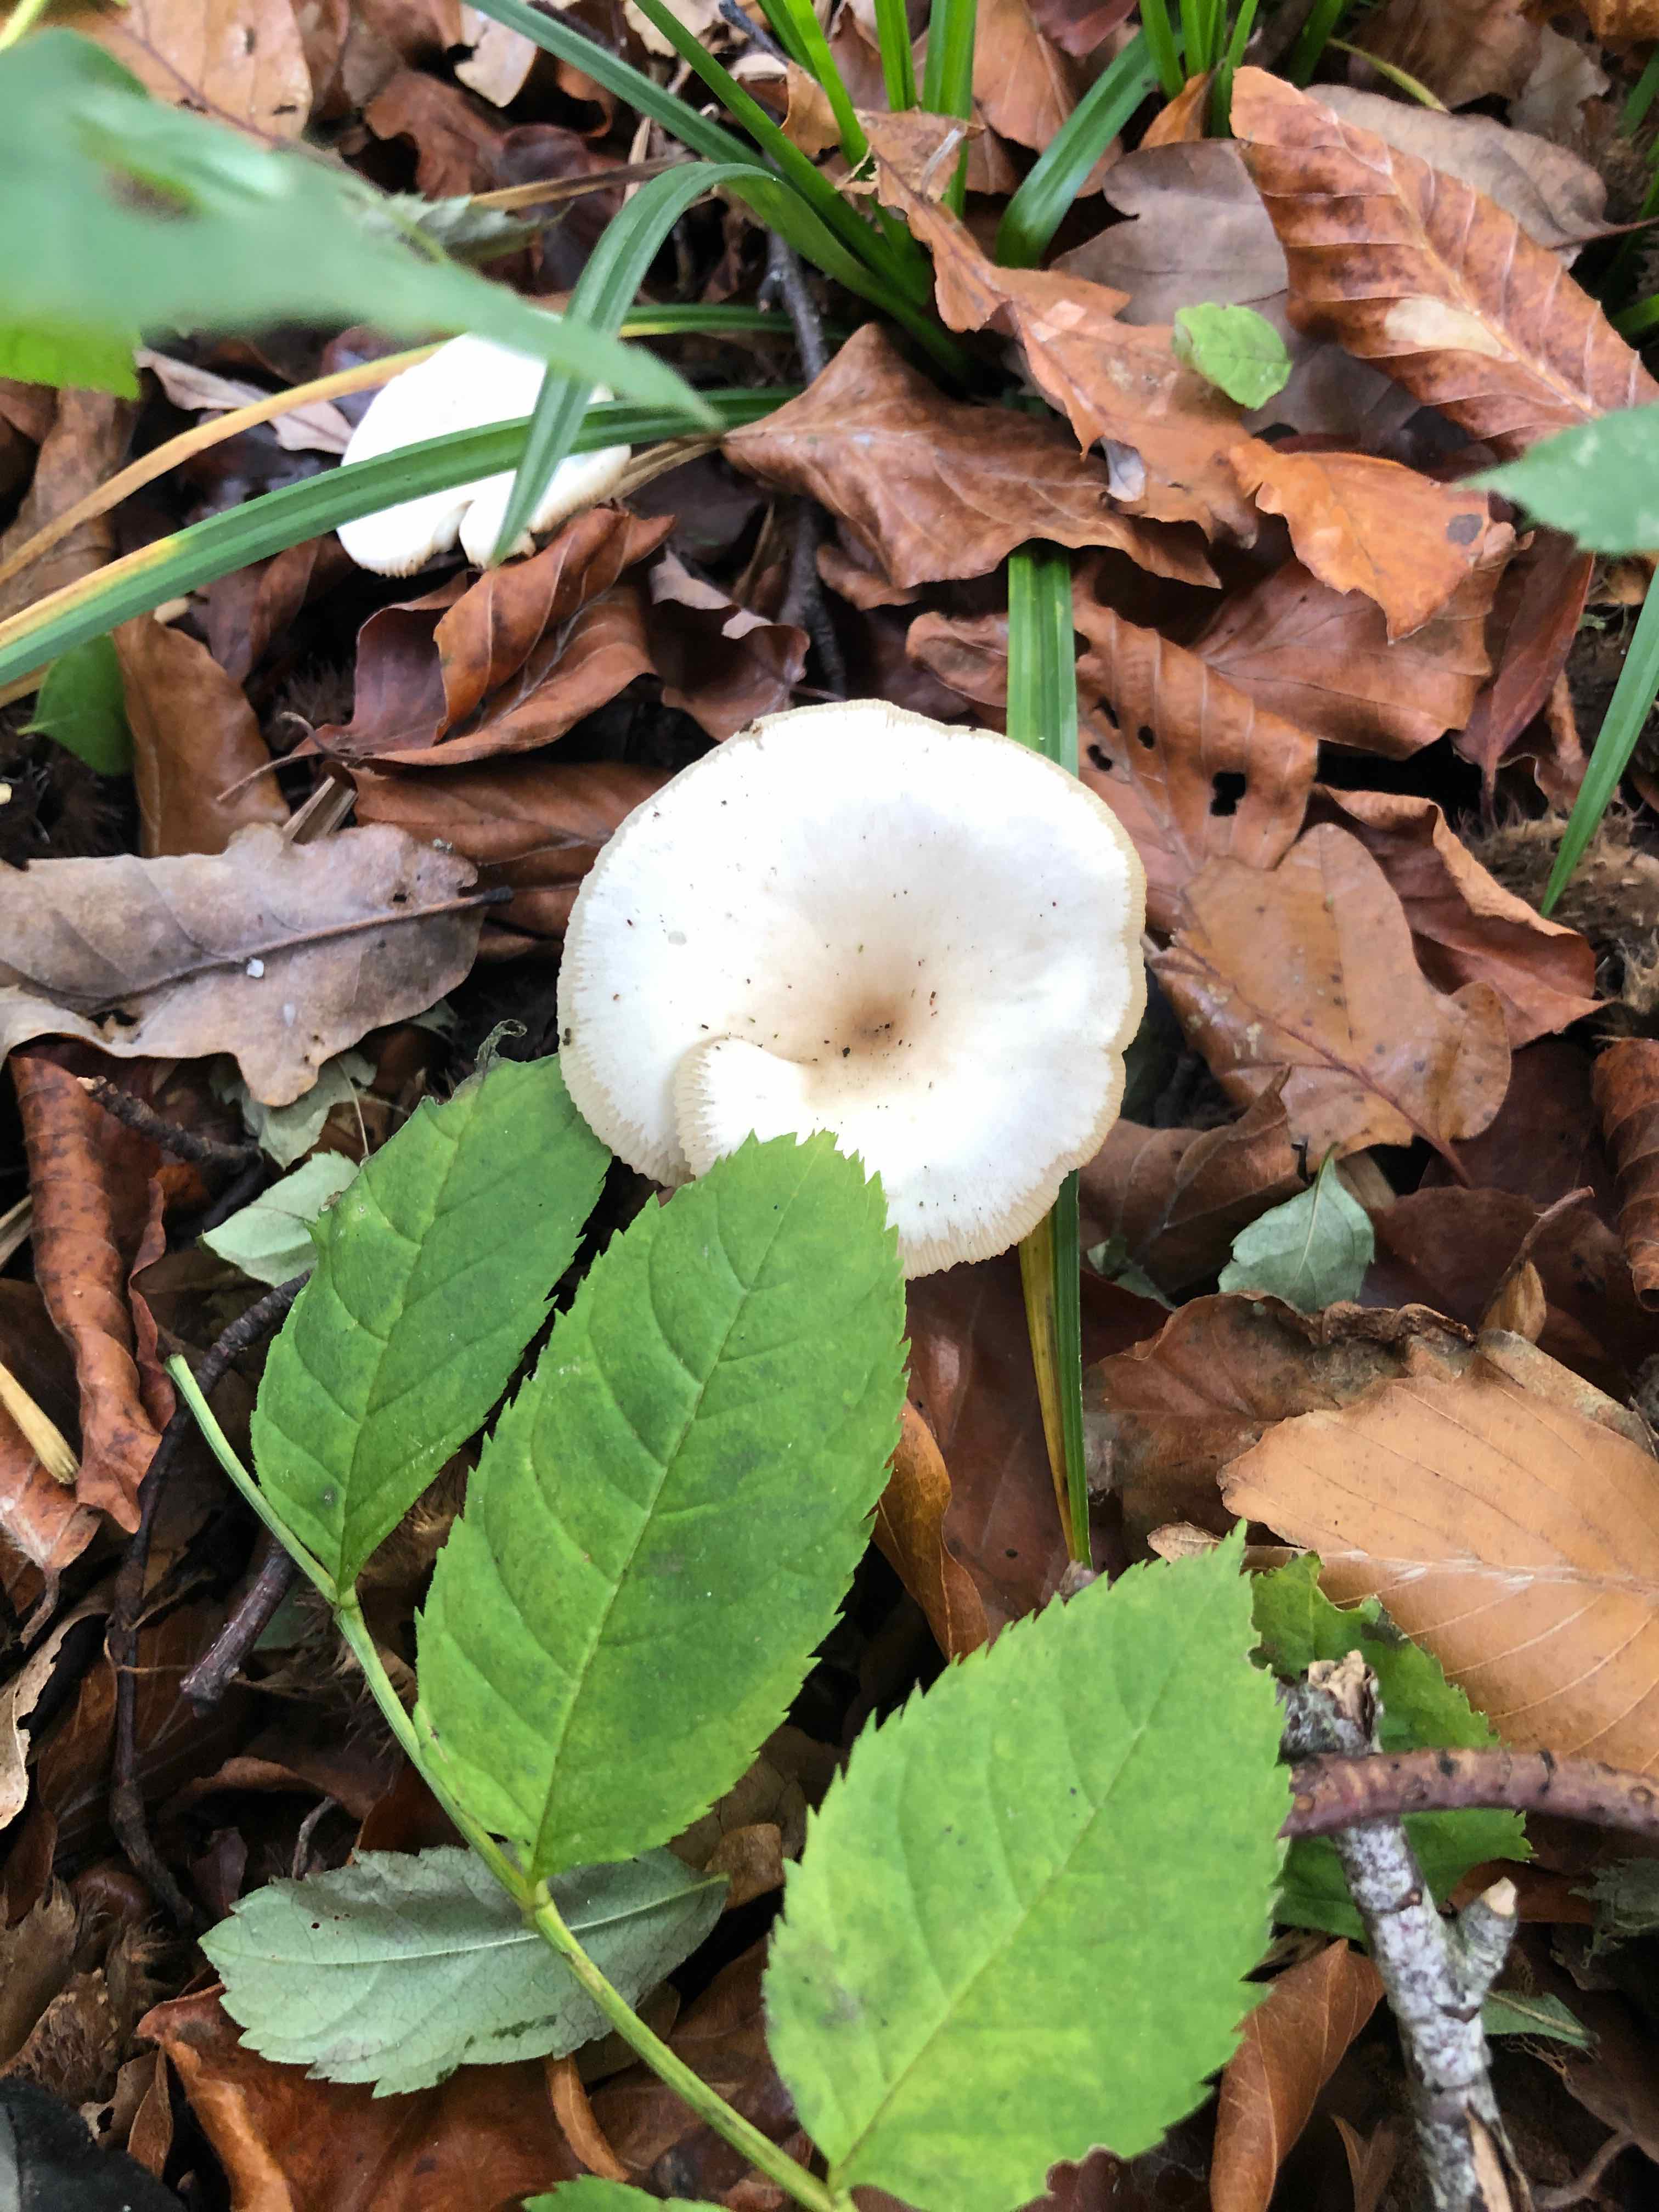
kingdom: Fungi
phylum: Basidiomycota
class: Agaricomycetes
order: Agaricales
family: Tricholomataceae
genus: Clitocybe
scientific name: Clitocybe
